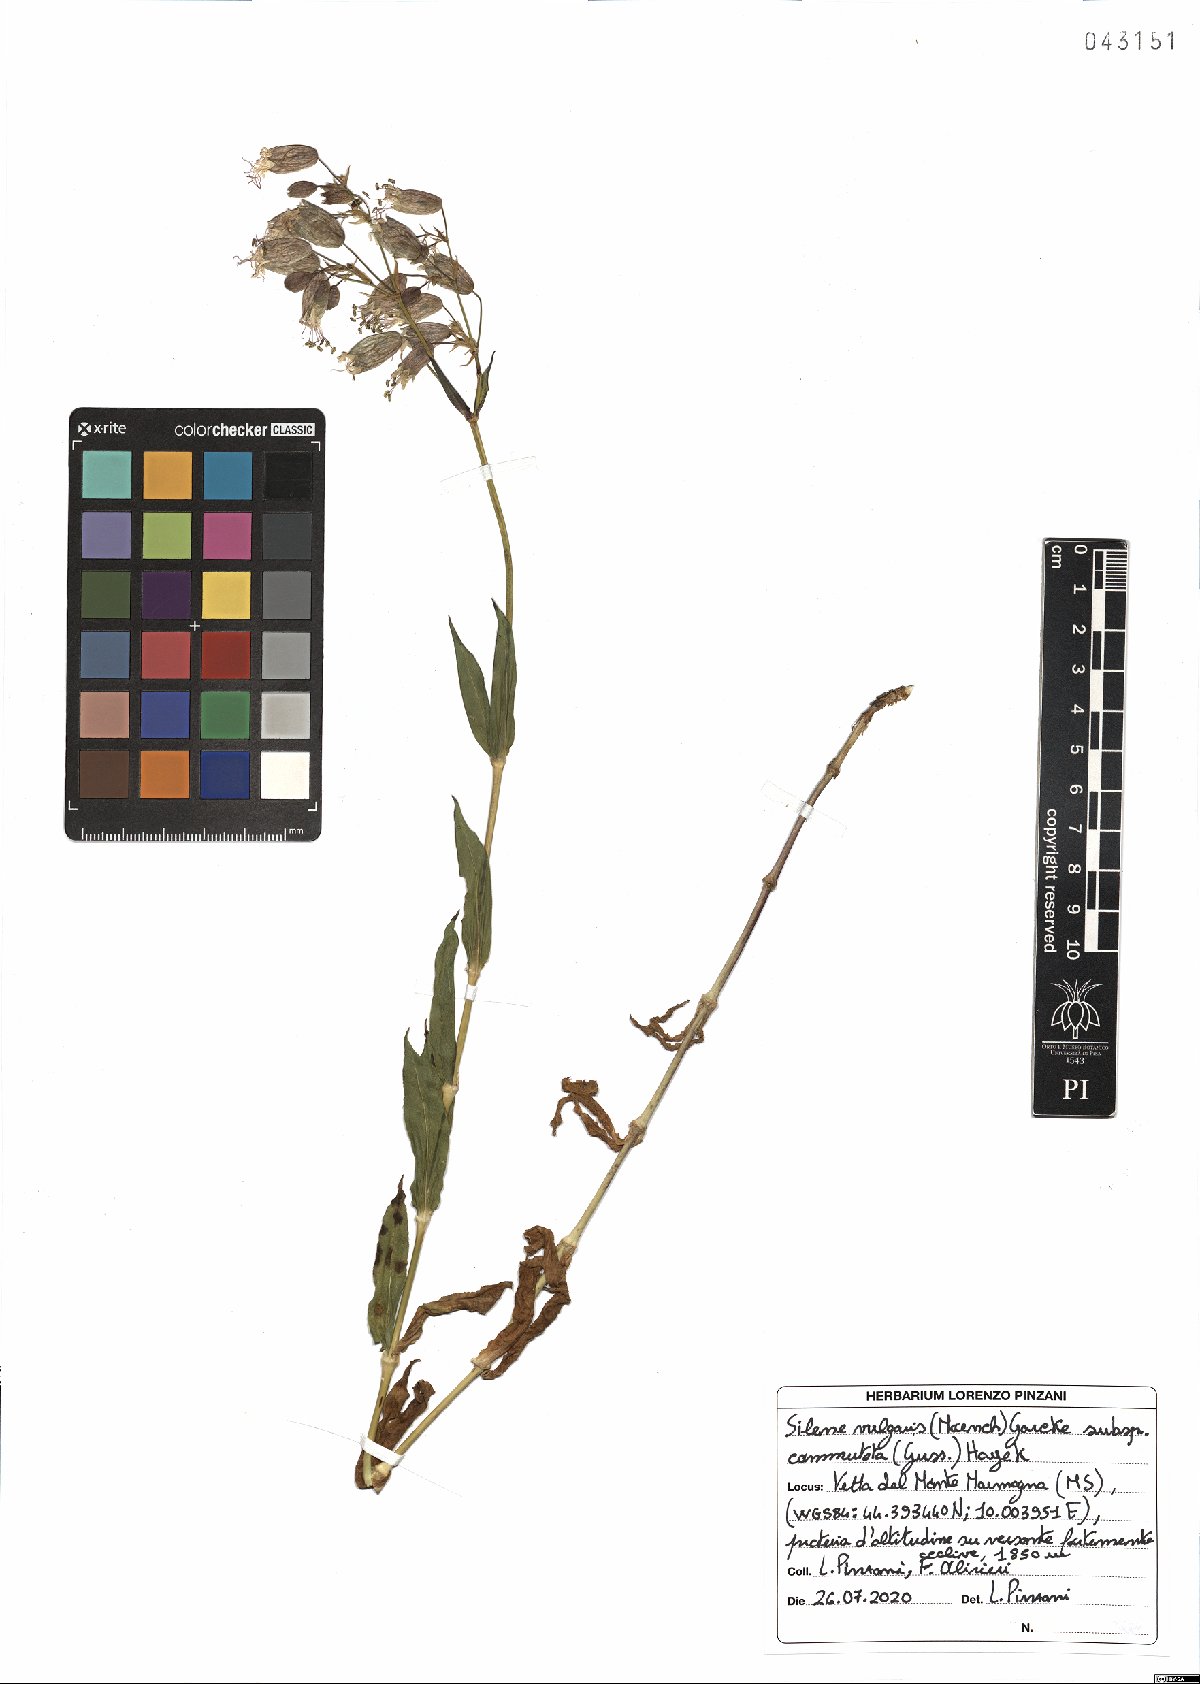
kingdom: Plantae
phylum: Tracheophyta
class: Magnoliopsida
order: Caryophyllales
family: Caryophyllaceae
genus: Silene
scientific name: Silene commutata
